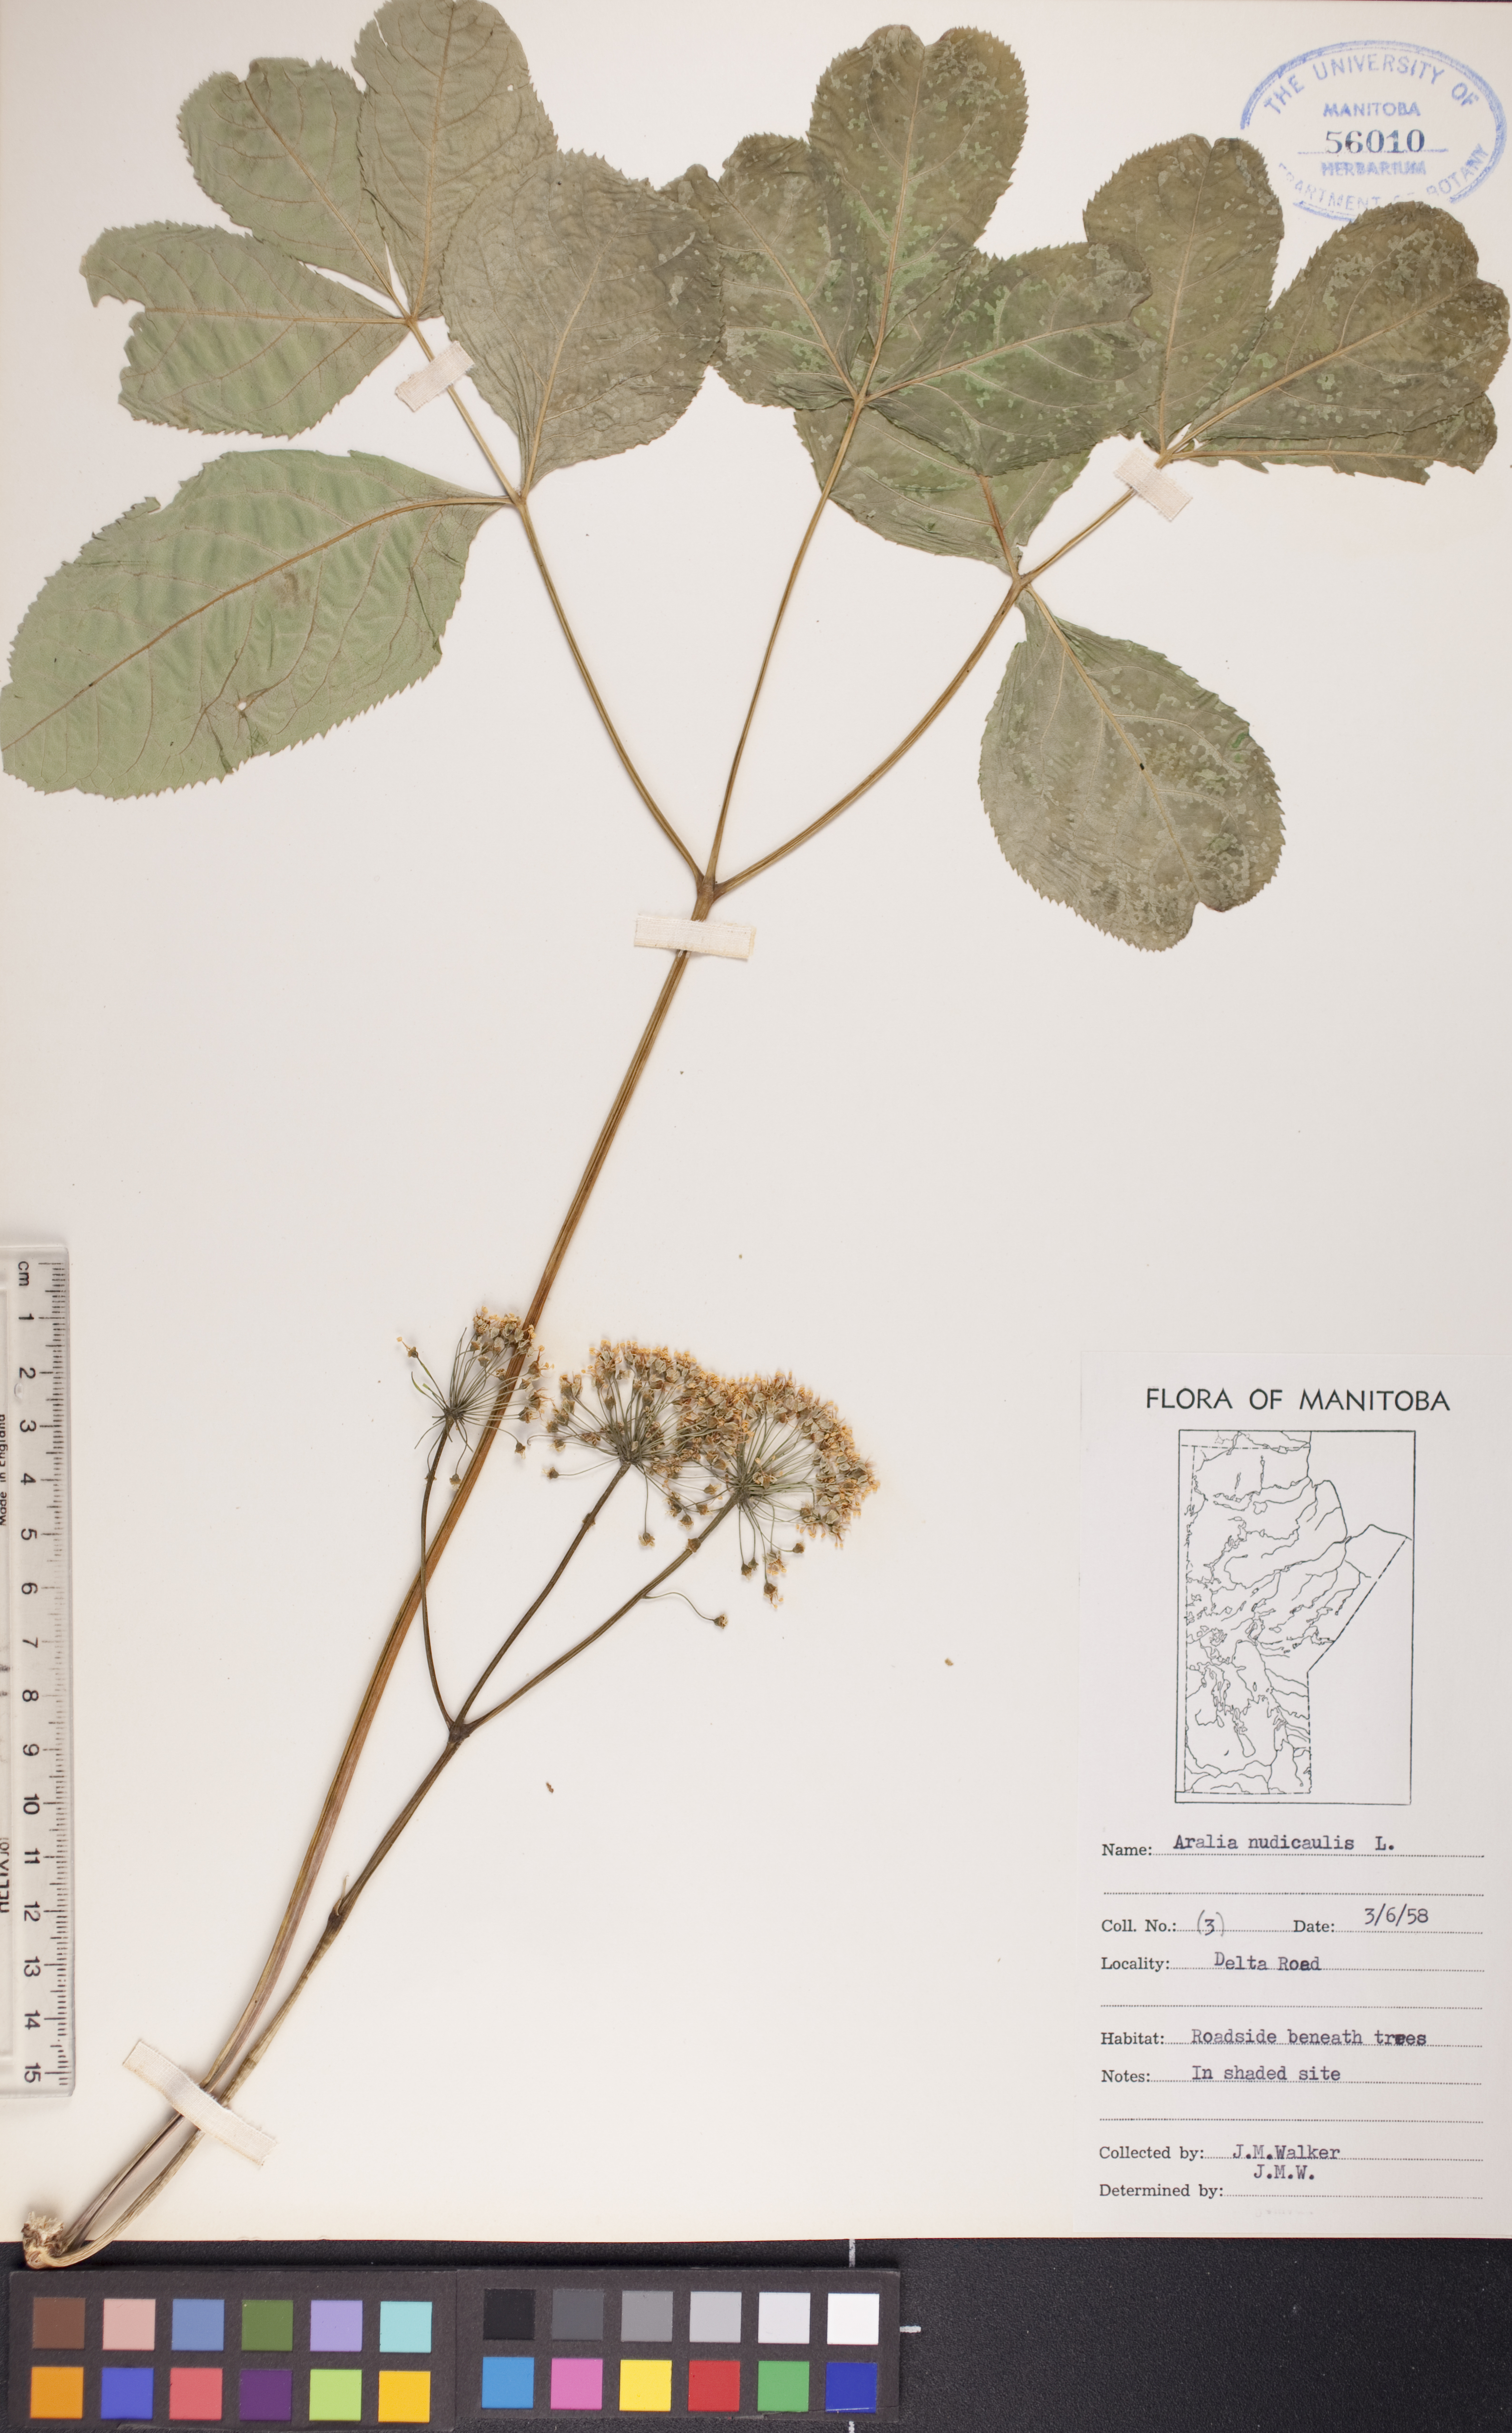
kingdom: Plantae
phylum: Tracheophyta
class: Magnoliopsida
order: Apiales
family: Araliaceae
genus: Aralia
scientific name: Aralia nudicaulis
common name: Wild sarsaparilla
